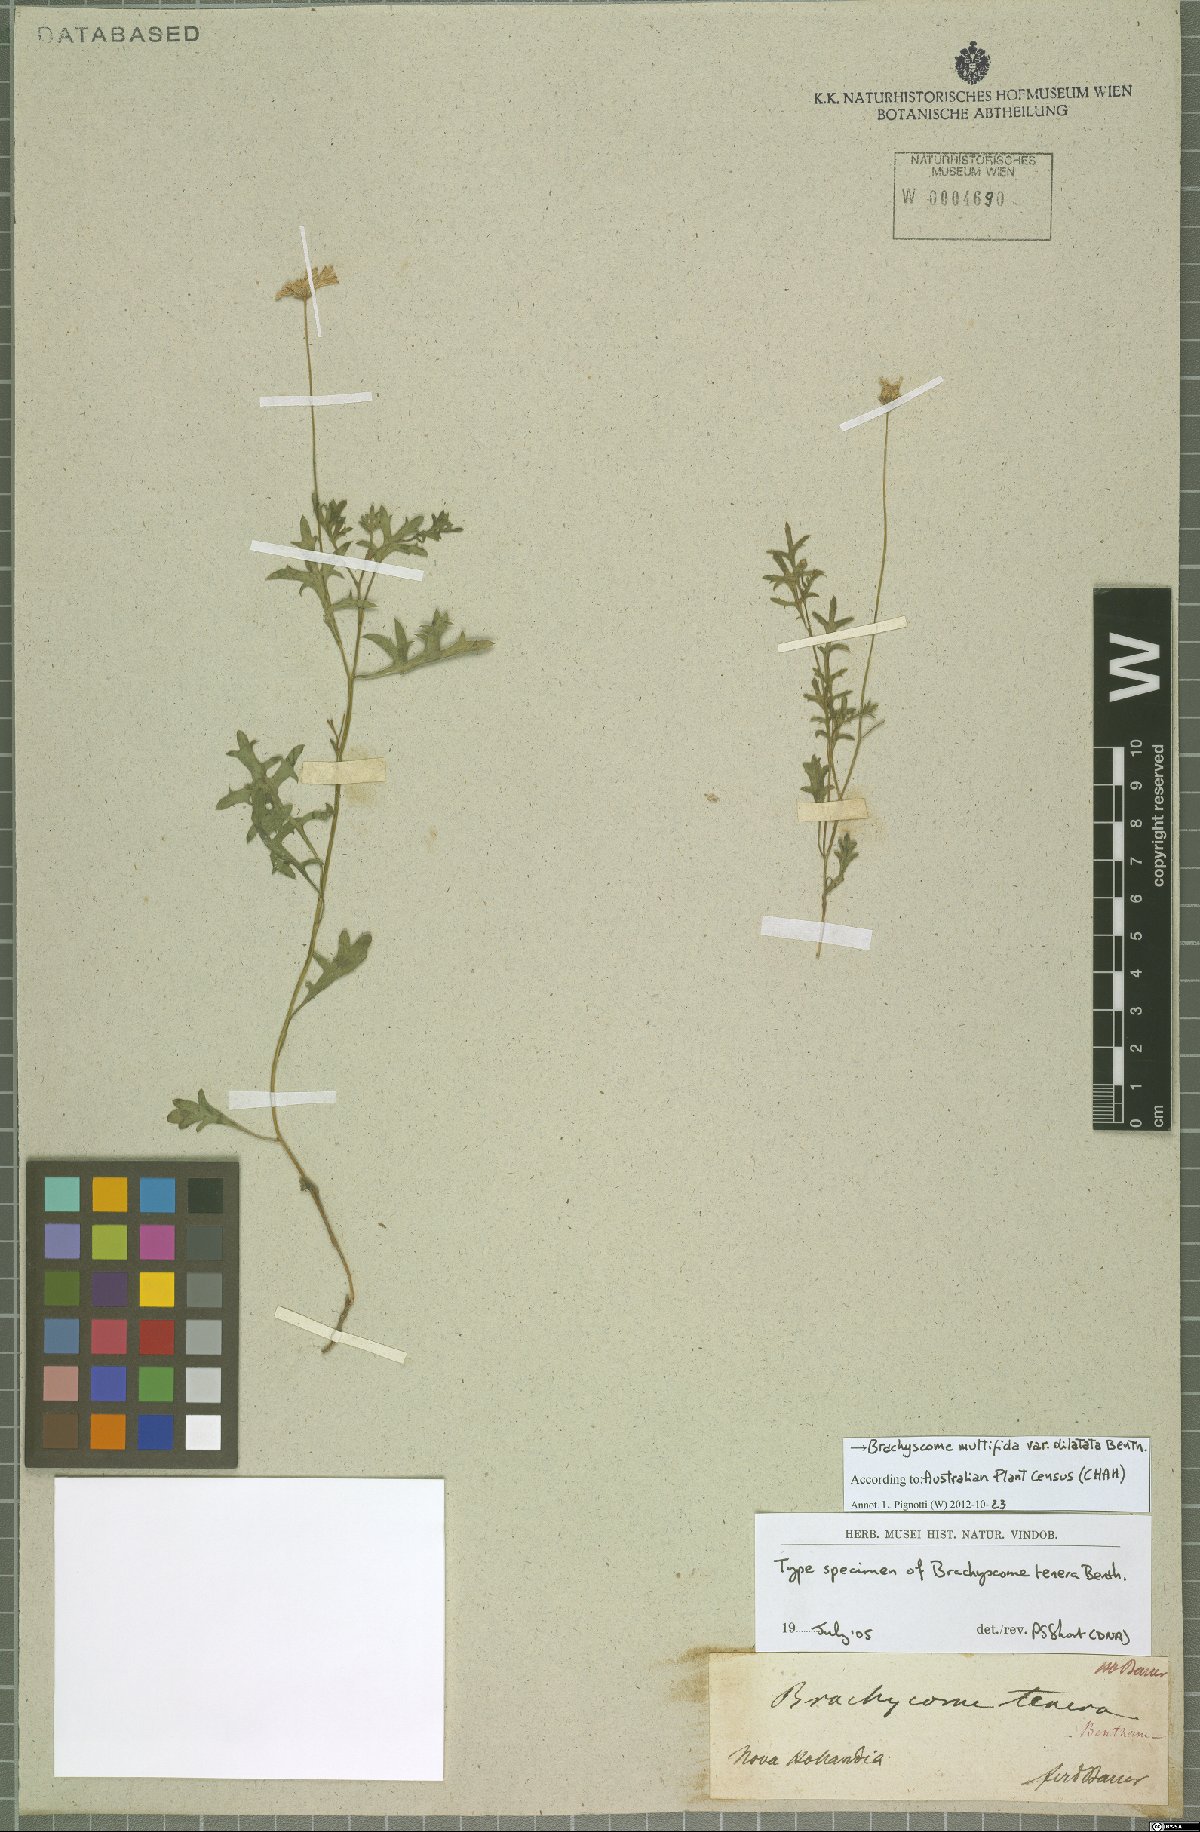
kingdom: Plantae
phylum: Tracheophyta
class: Magnoliopsida
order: Asterales
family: Asteraceae
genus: Brachyscome
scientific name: Brachyscome multifida
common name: Cut-leaf daisy
